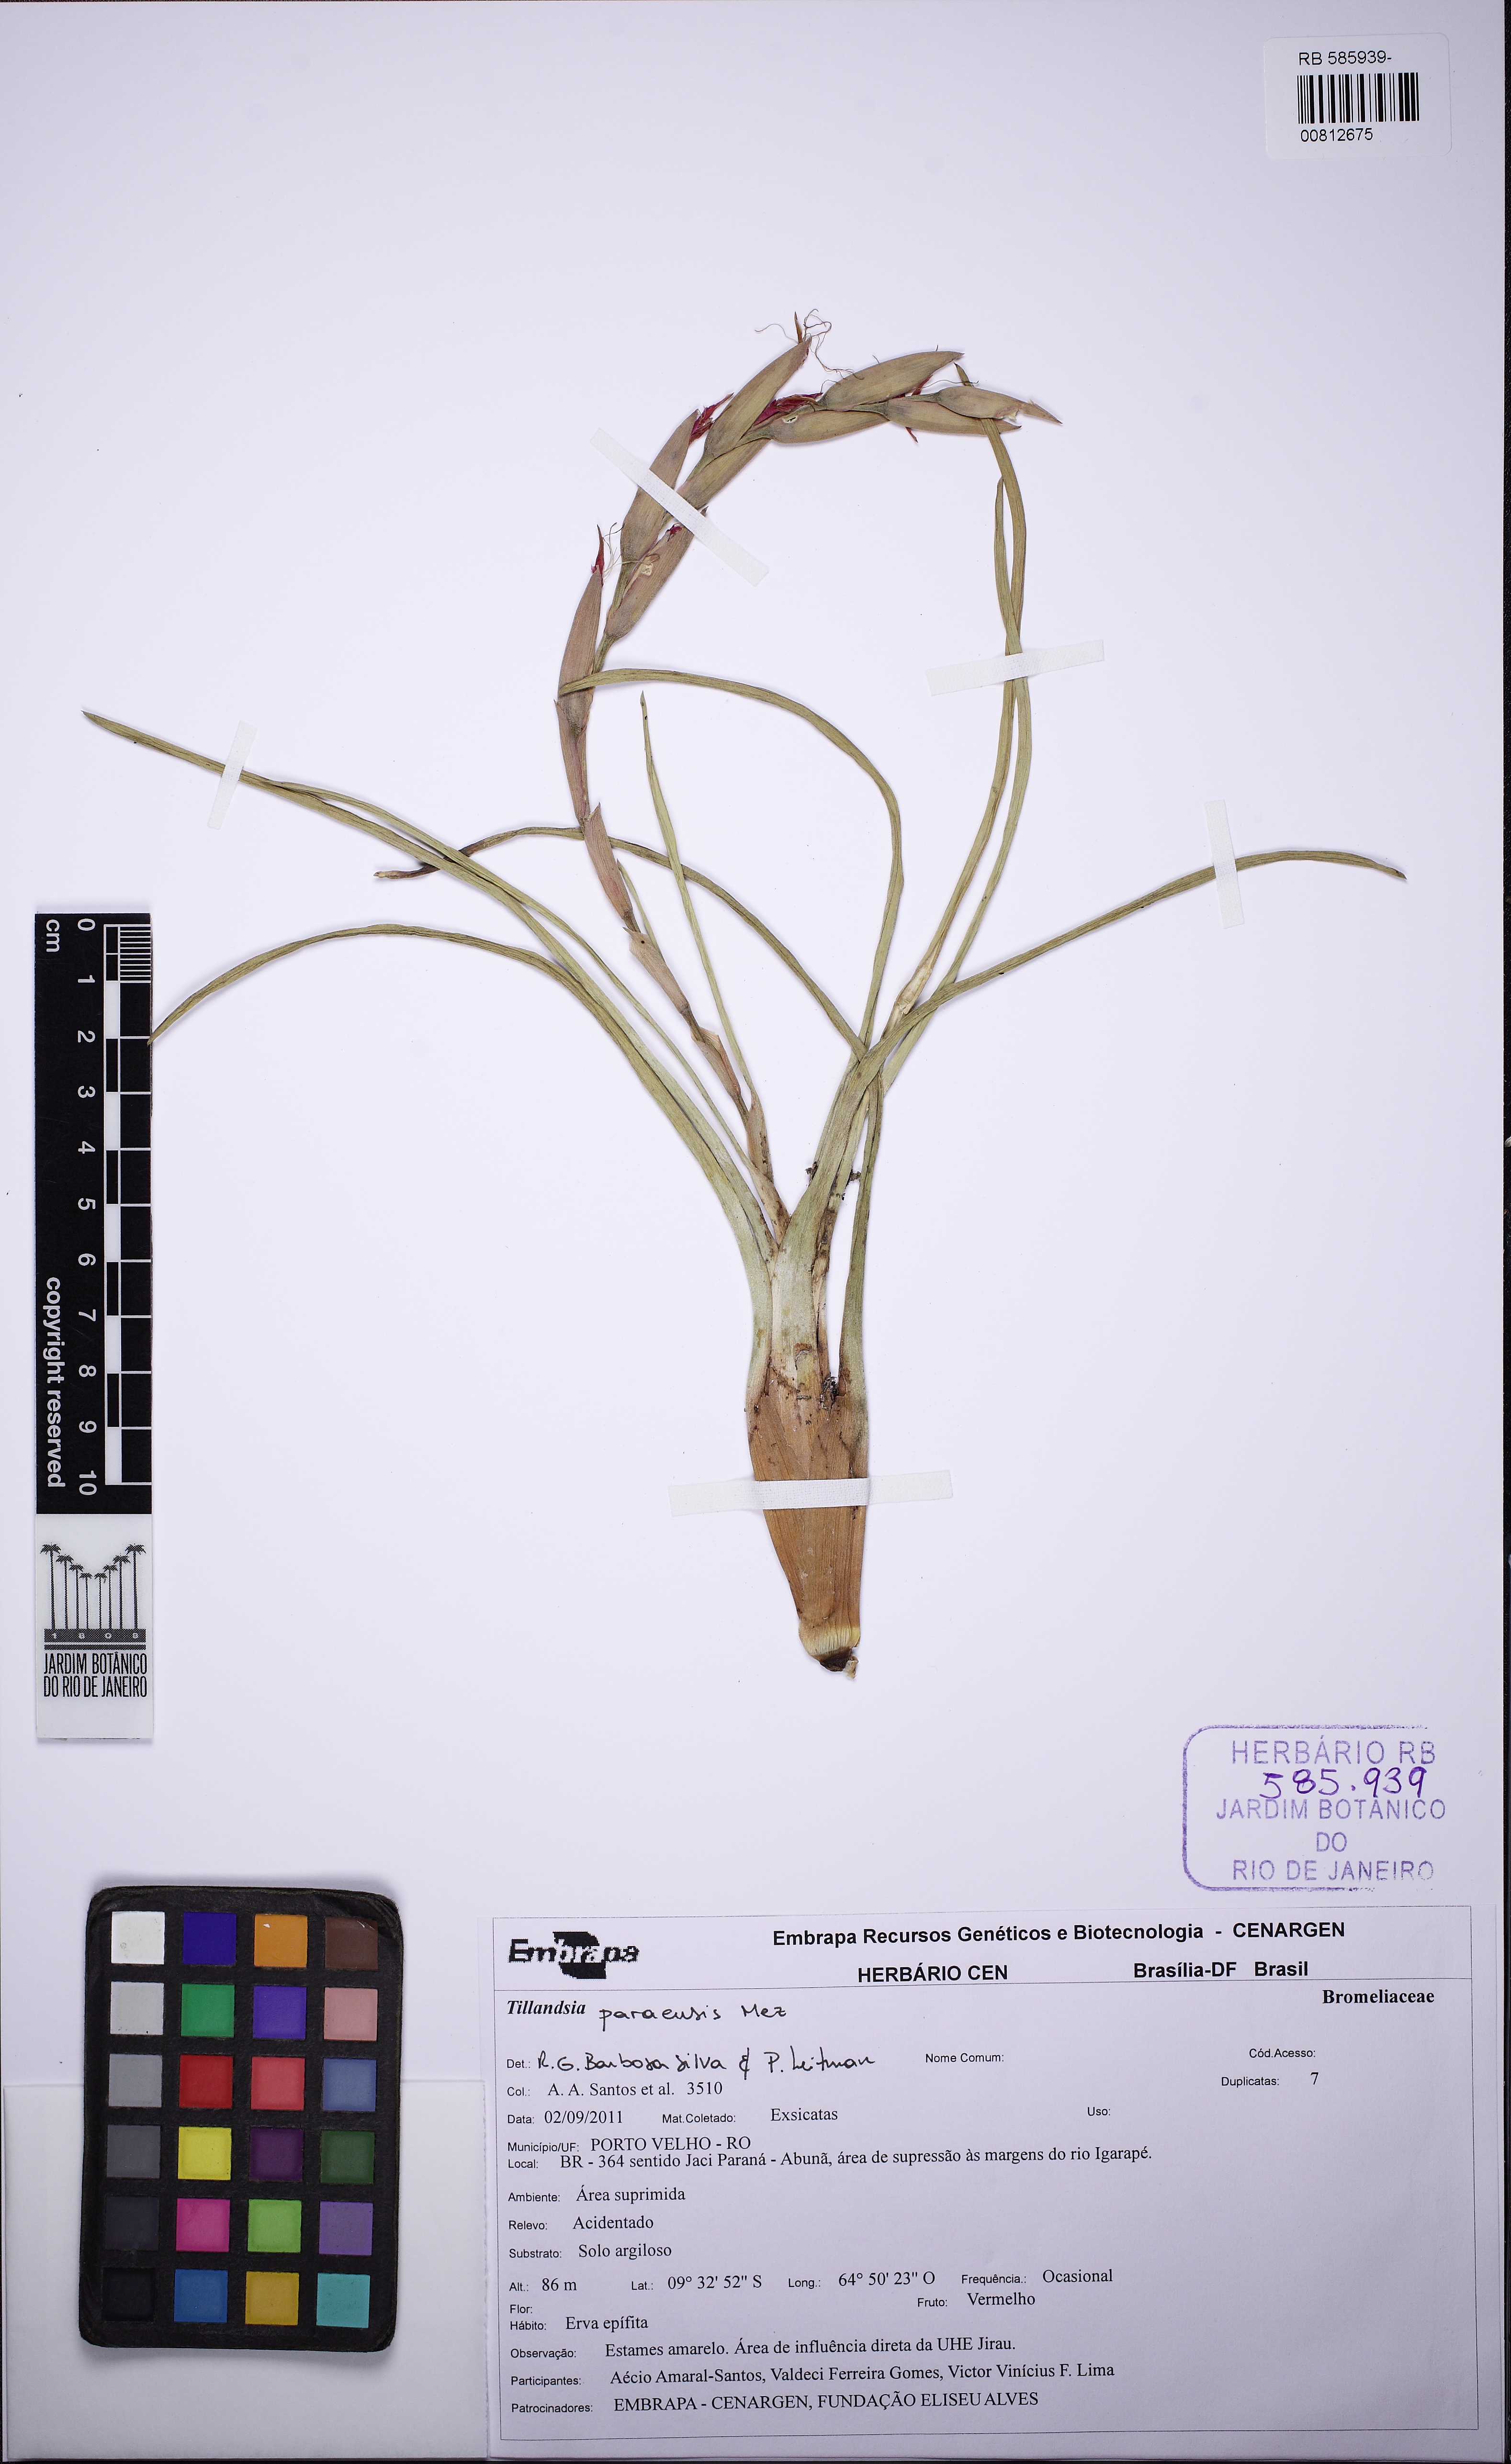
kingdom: Plantae
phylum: Tracheophyta
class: Liliopsida
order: Poales
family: Bromeliaceae
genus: Tillandsia
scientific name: Tillandsia paraensis
